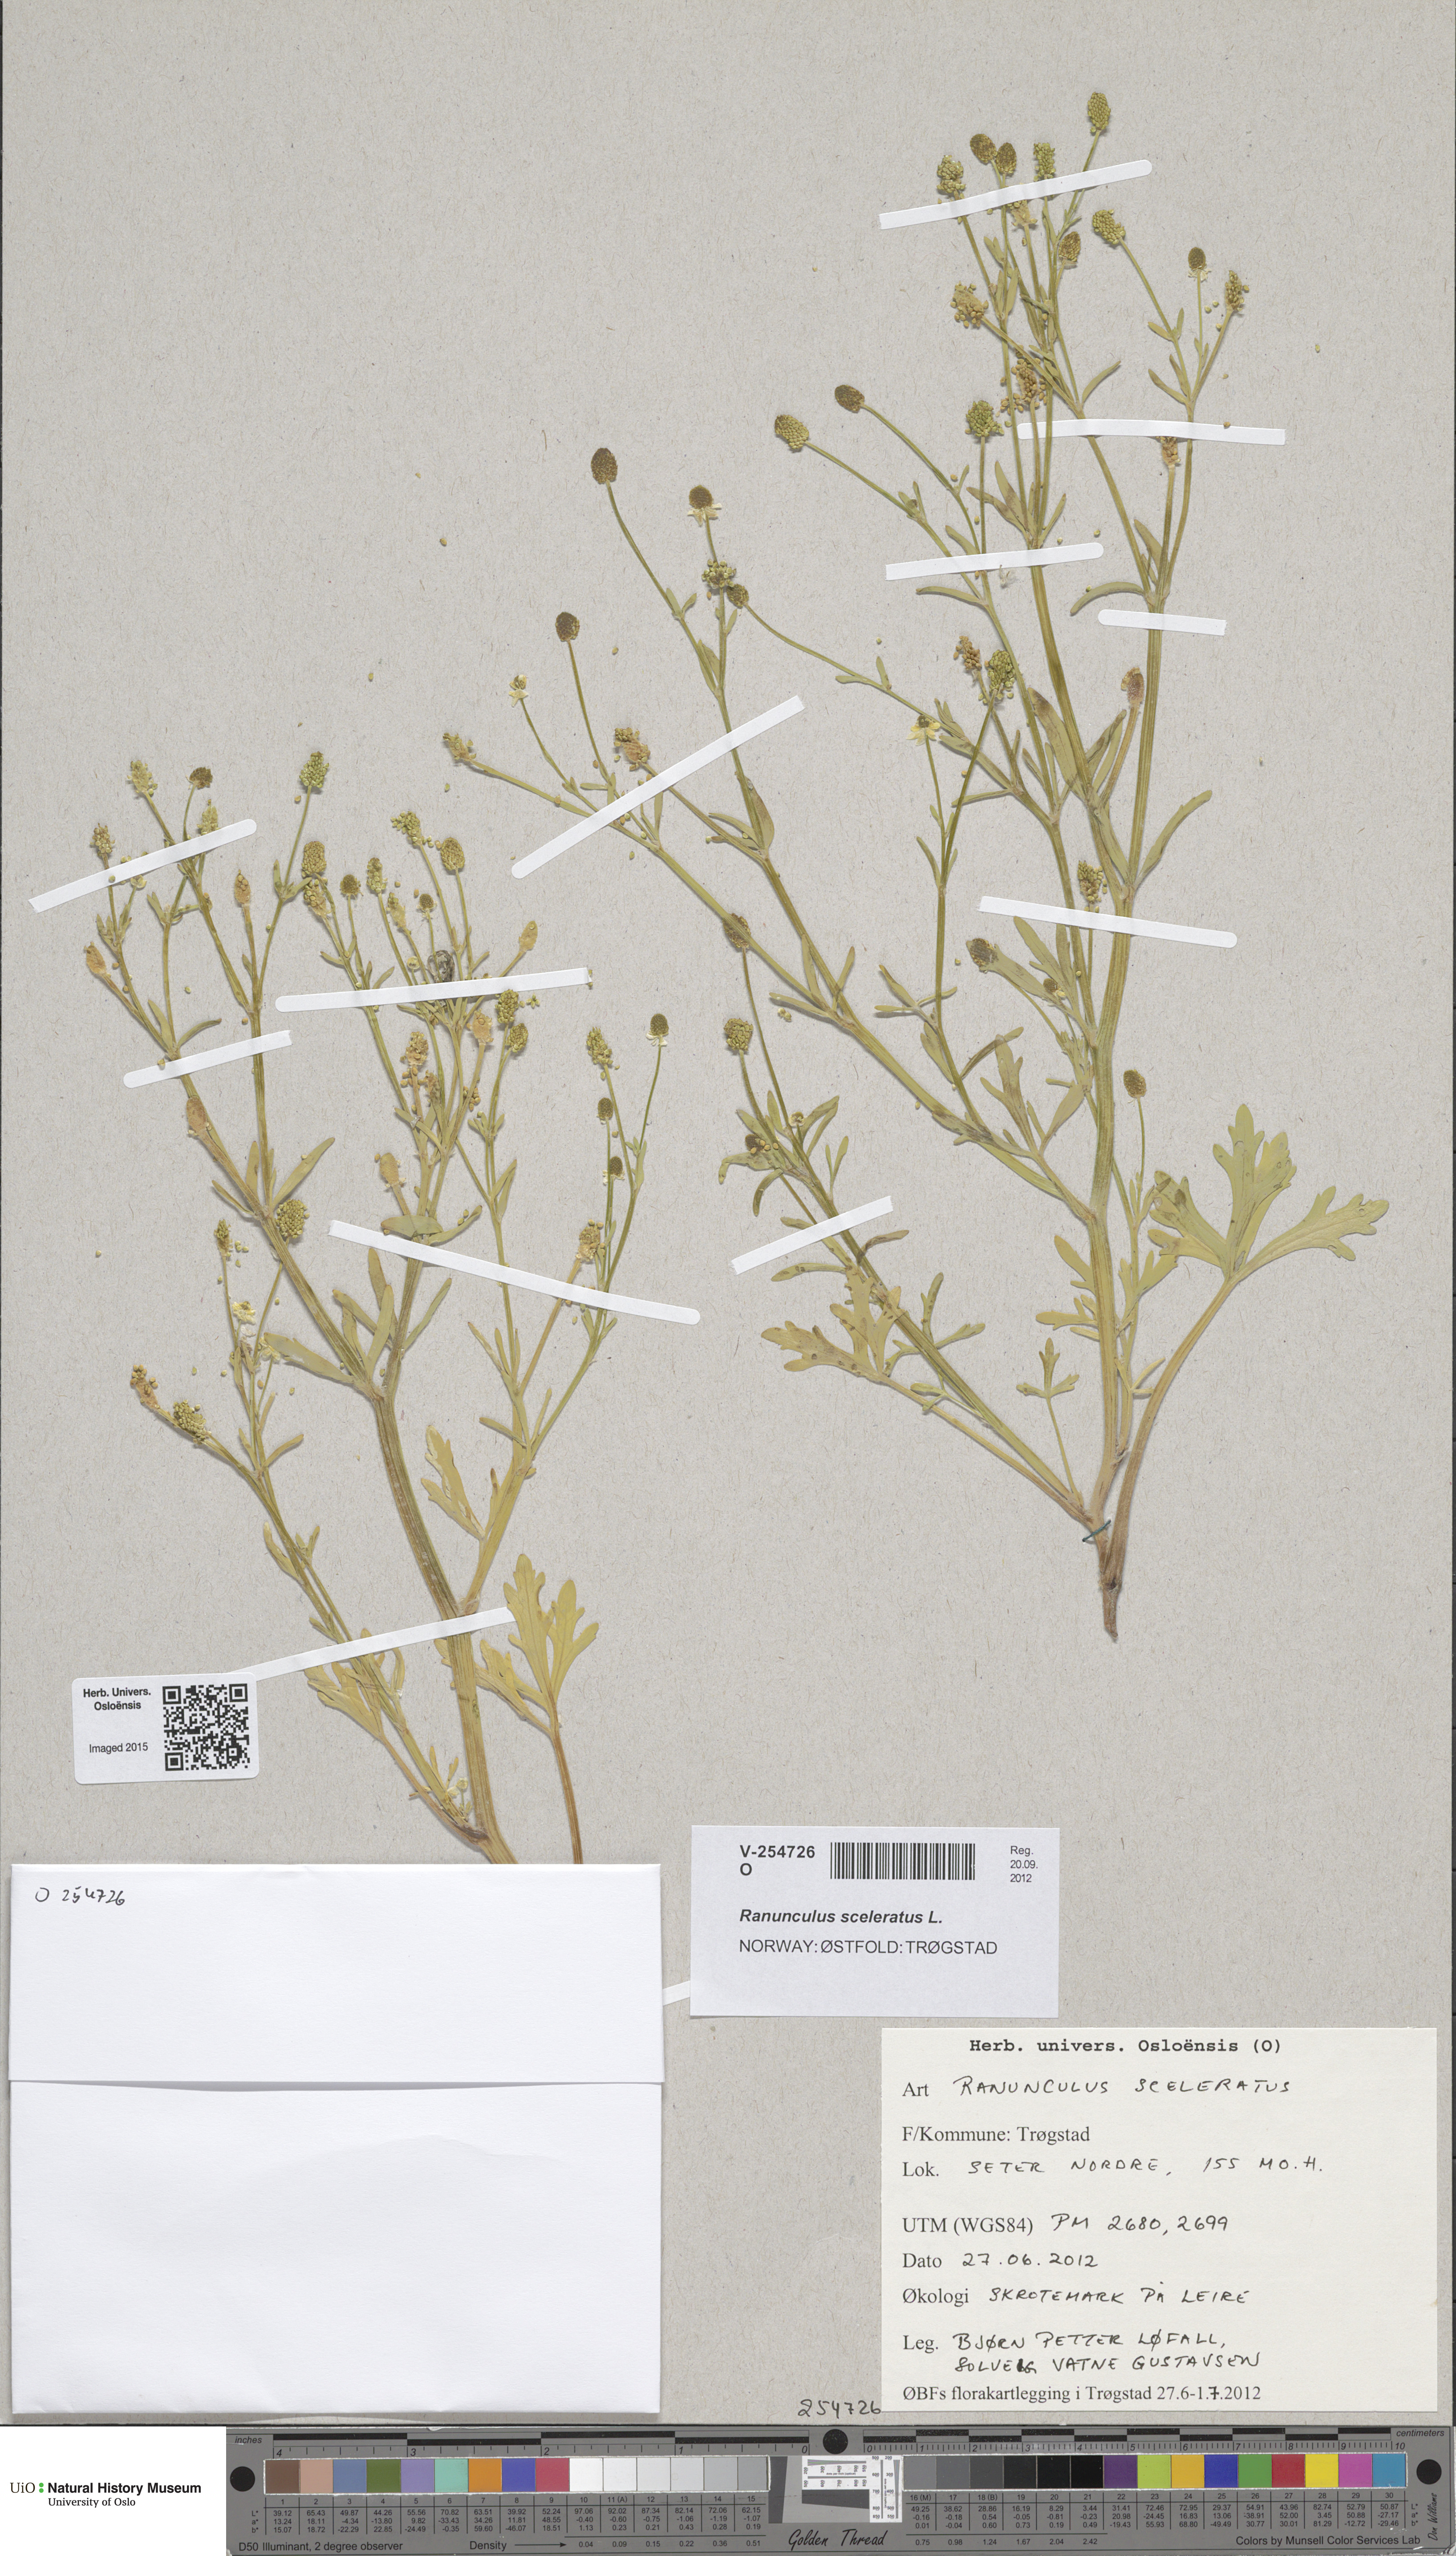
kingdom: Plantae
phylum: Tracheophyta
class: Magnoliopsida
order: Ranunculales
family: Ranunculaceae
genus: Ranunculus
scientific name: Ranunculus sceleratus
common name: Celery-leaved buttercup
